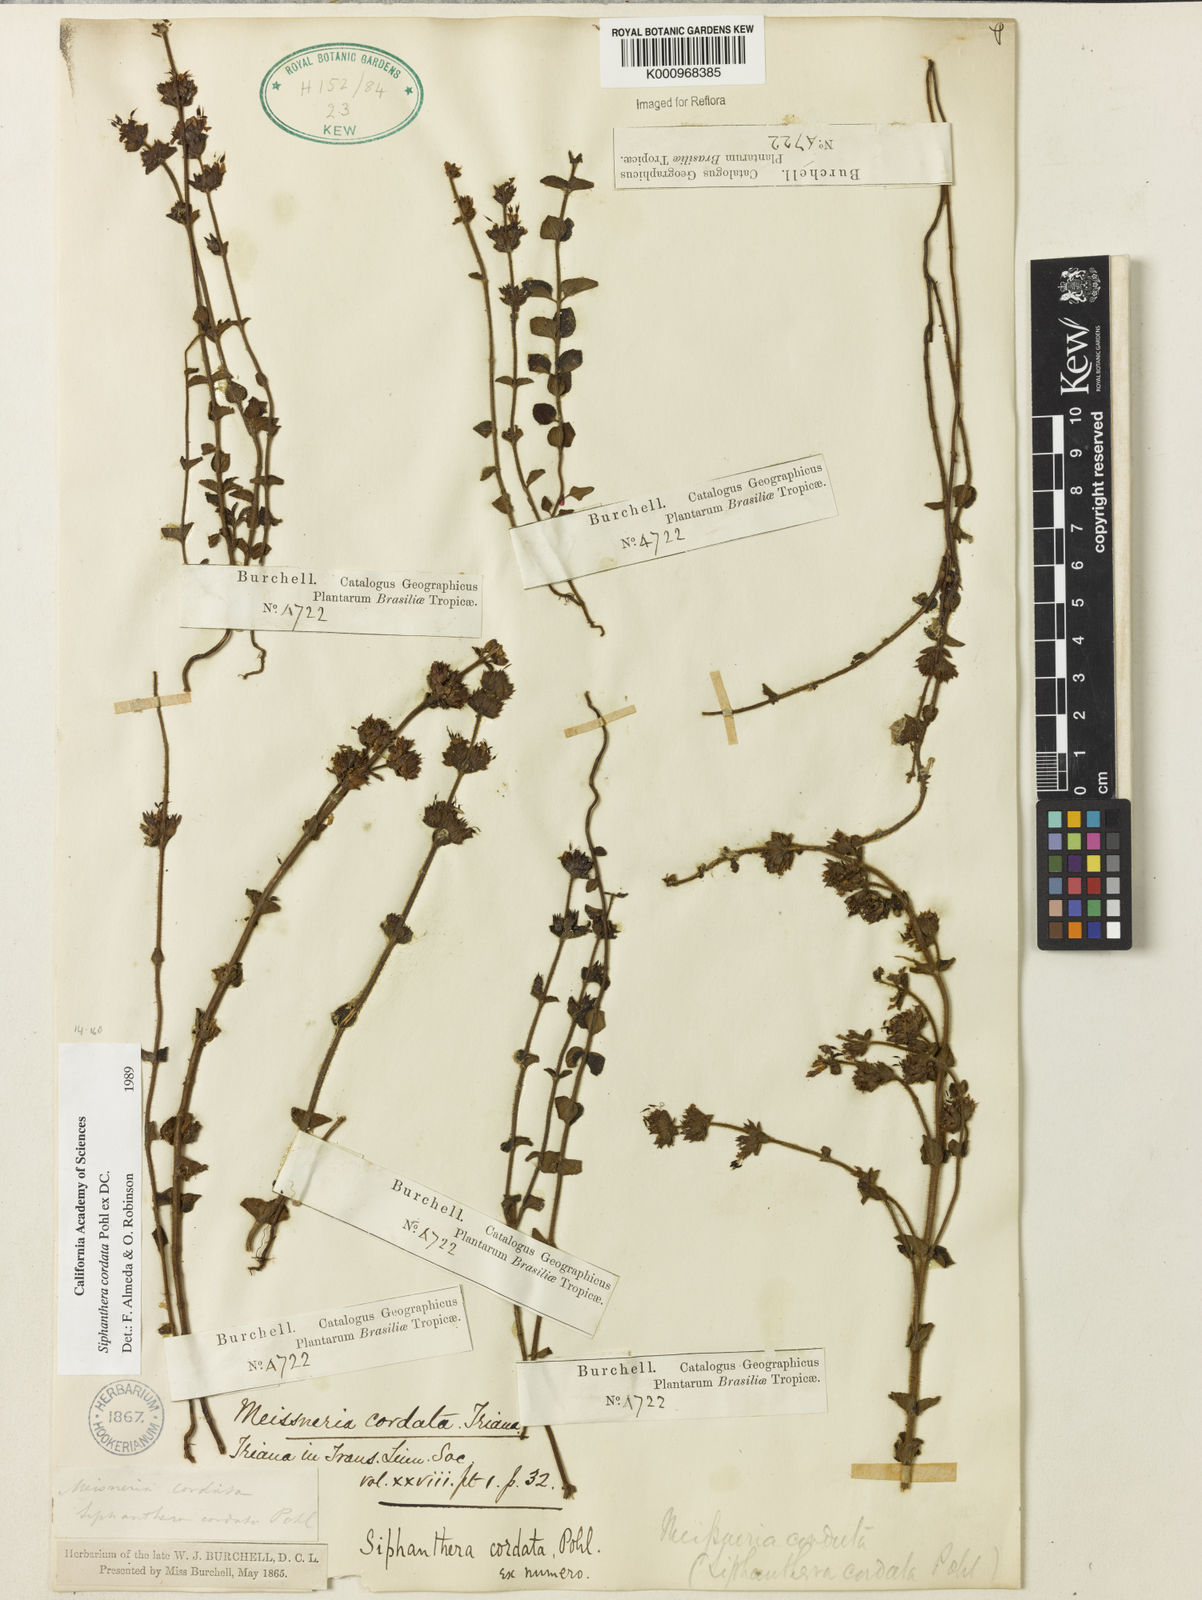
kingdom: Plantae
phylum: Tracheophyta
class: Magnoliopsida
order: Myrtales
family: Melastomataceae
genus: Siphanthera
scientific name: Siphanthera
